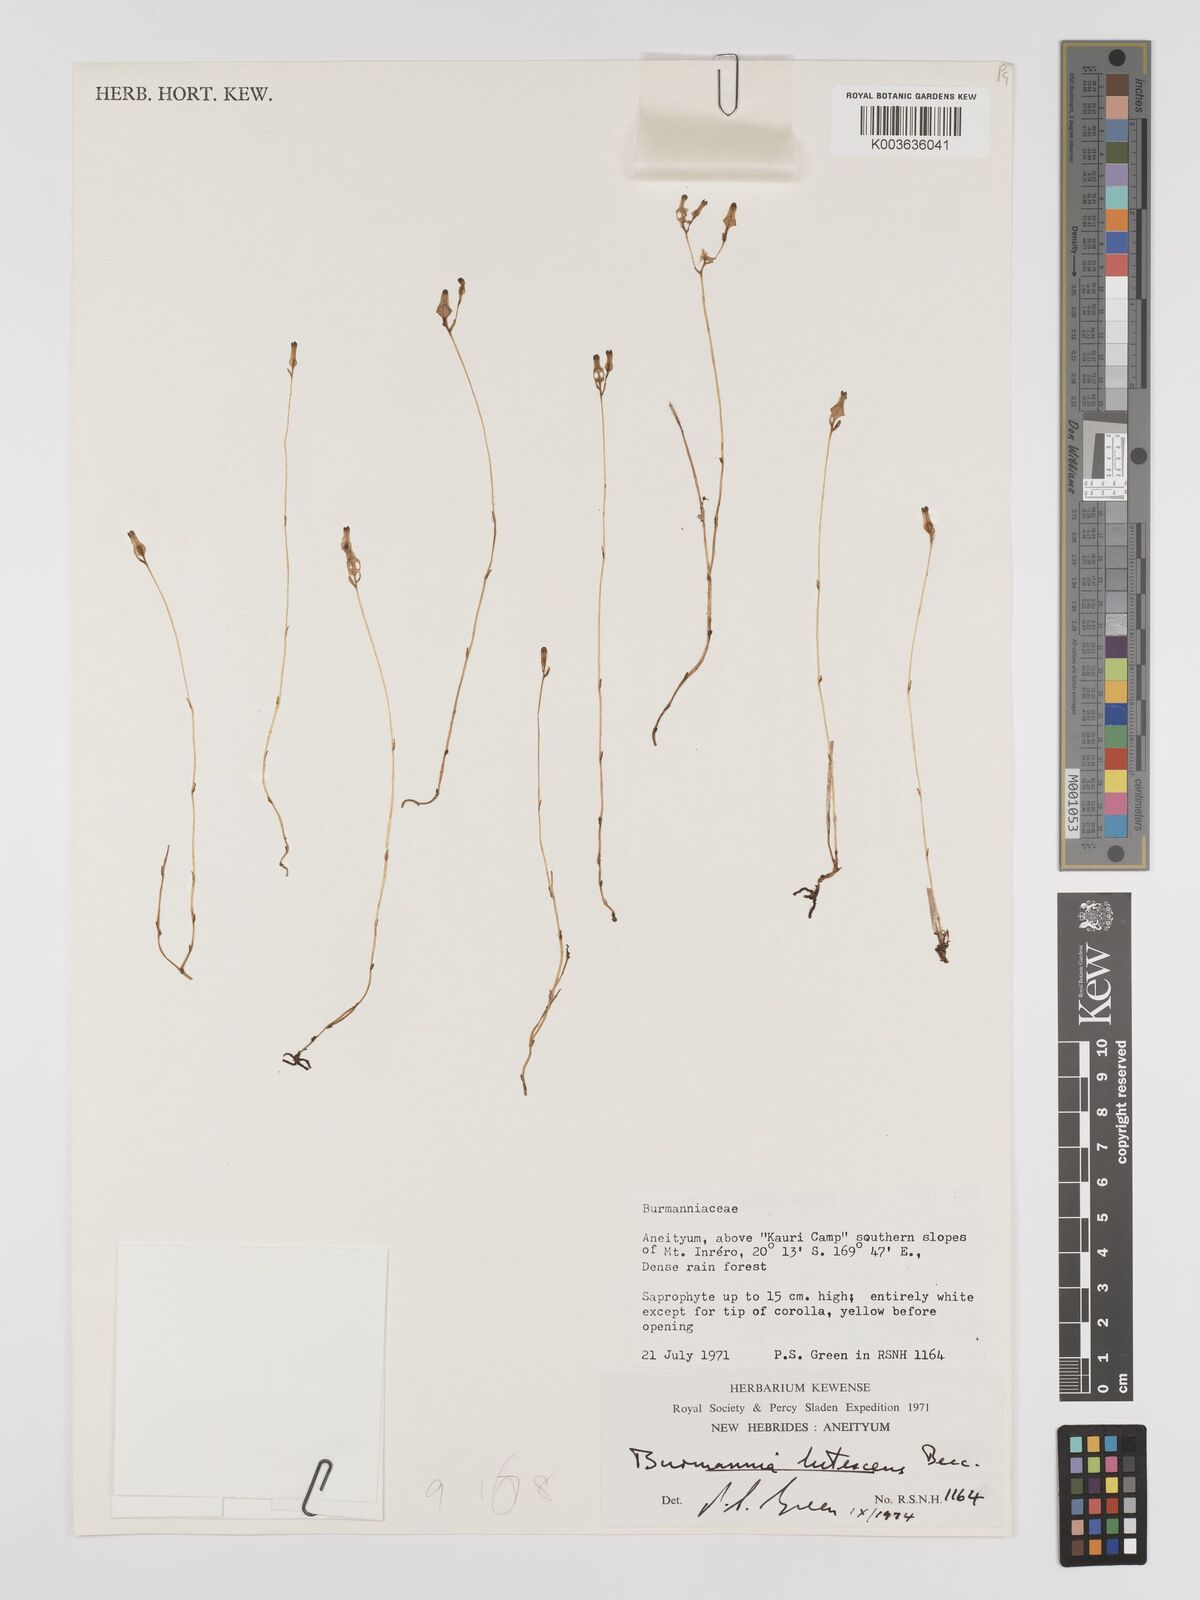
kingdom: Plantae
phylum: Tracheophyta
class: Liliopsida
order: Dioscoreales
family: Burmanniaceae
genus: Burmannia
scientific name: Burmannia lutescens
